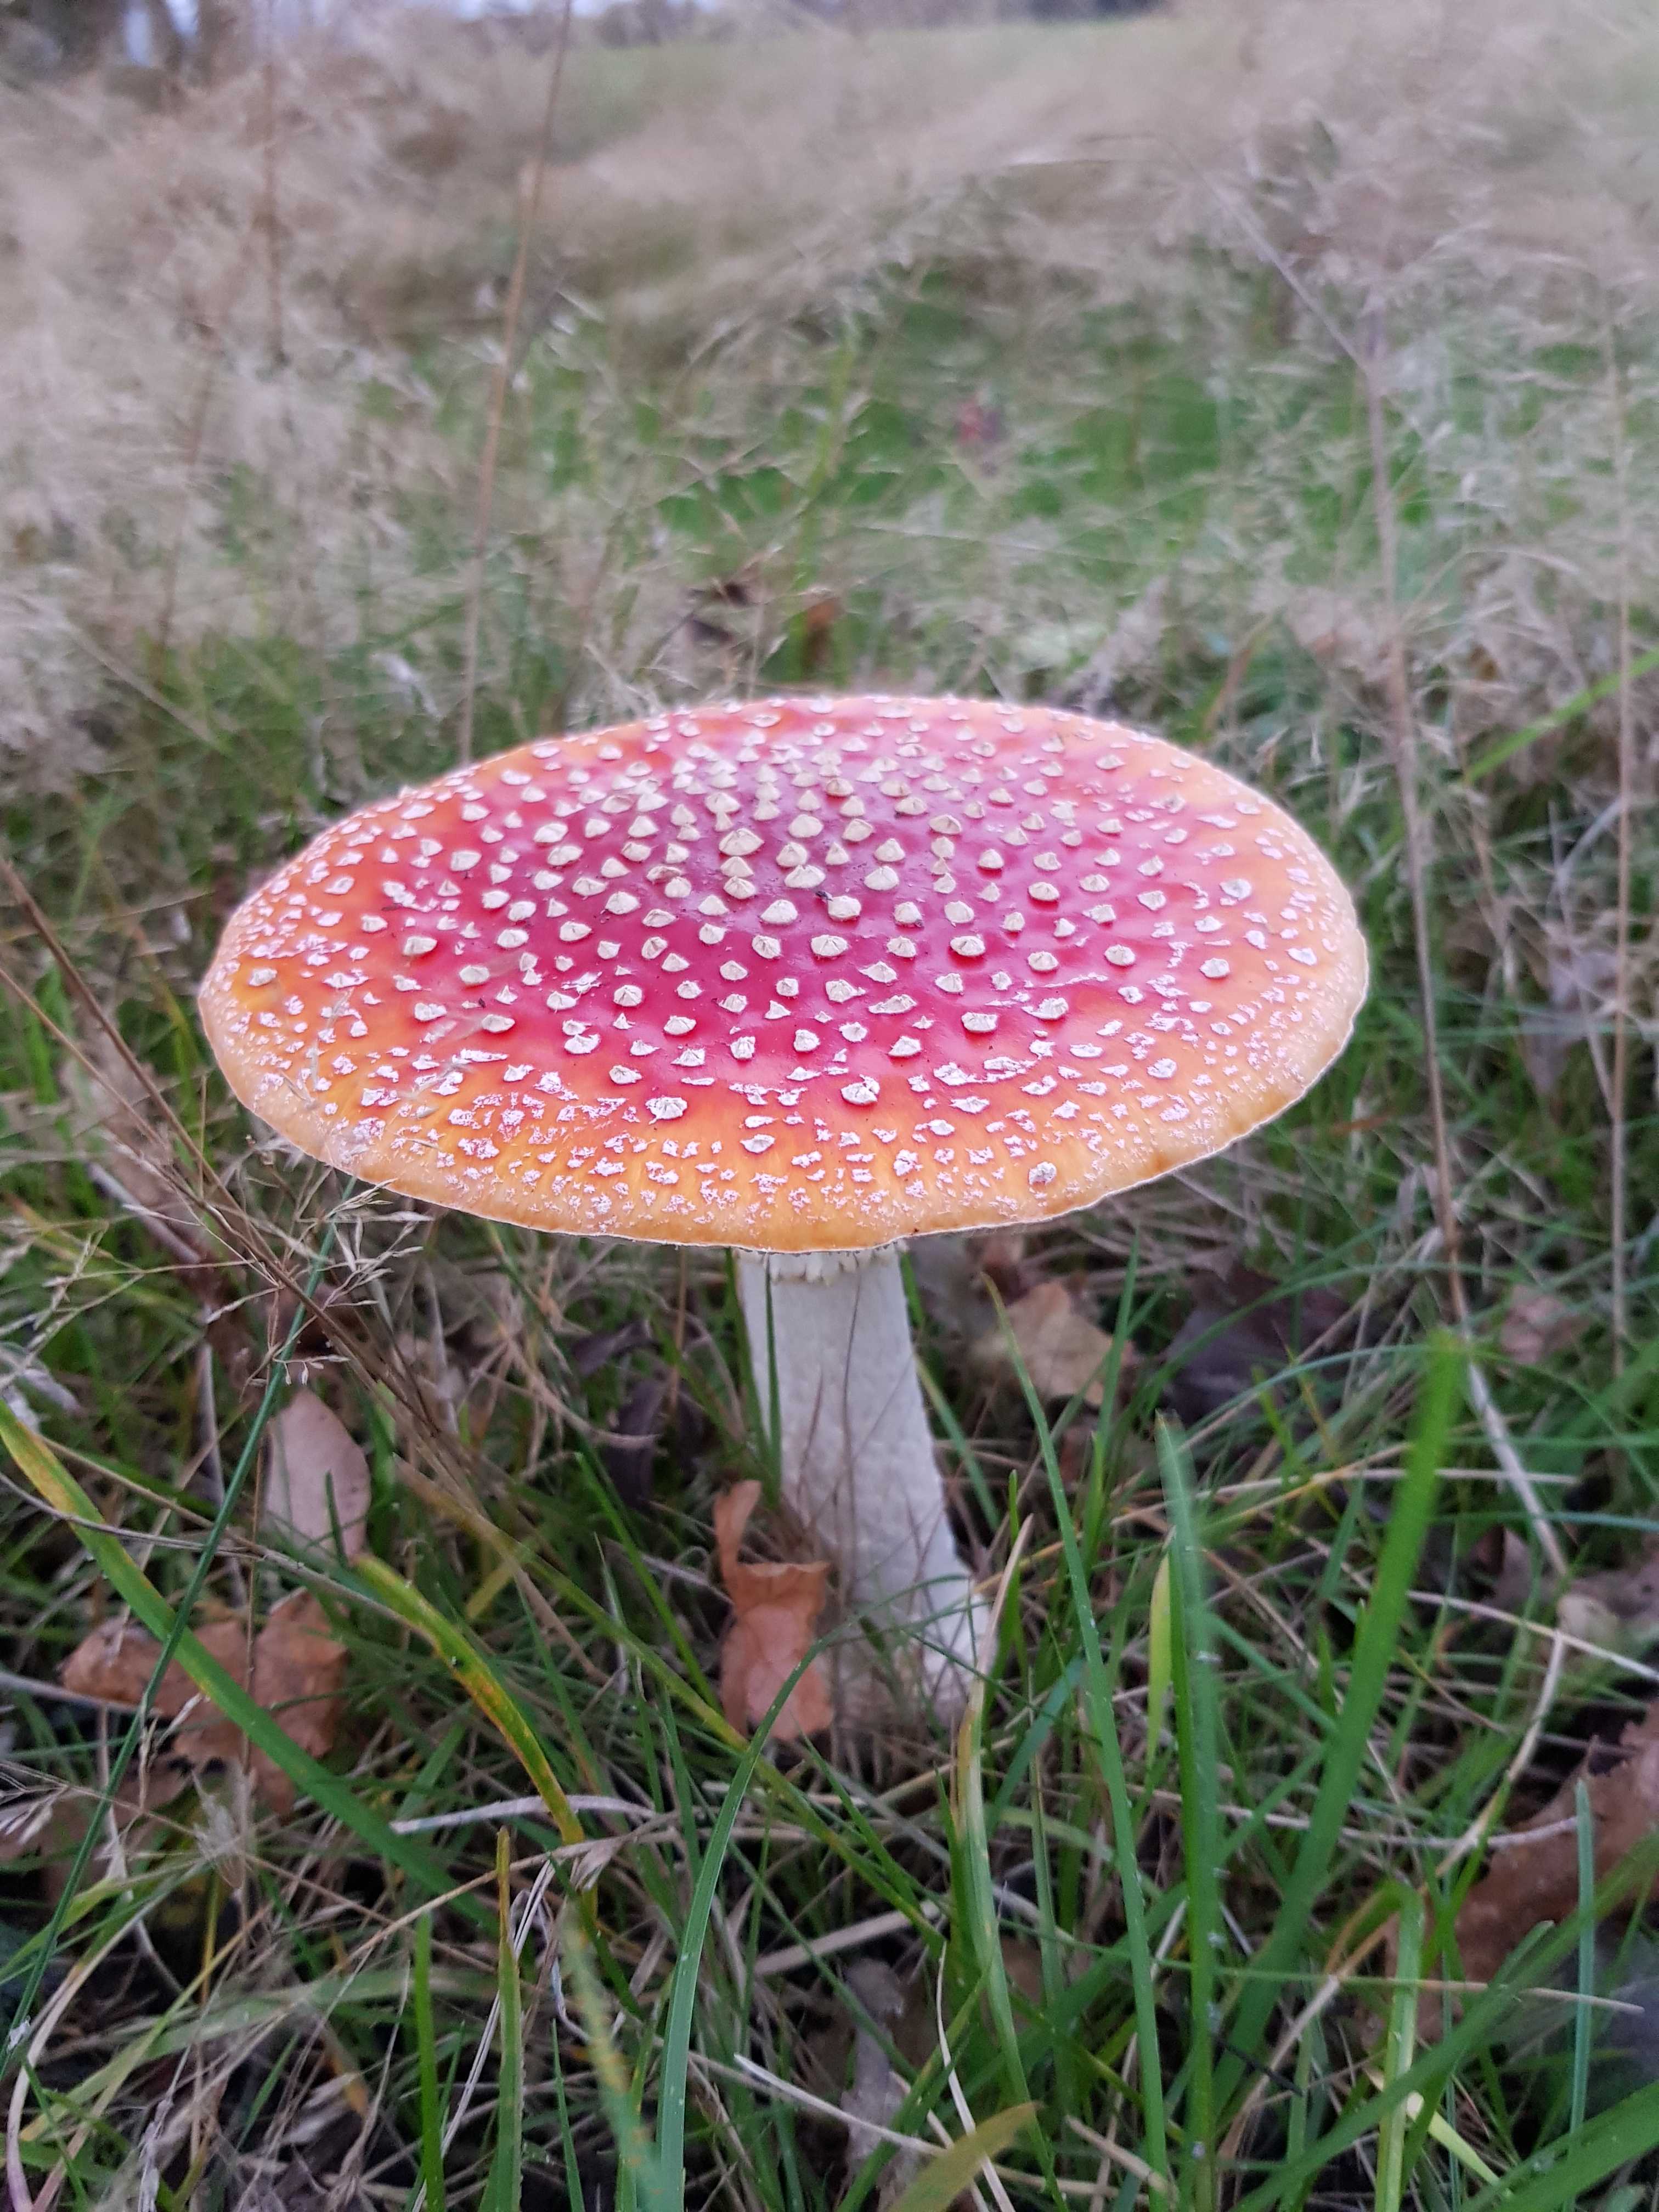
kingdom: Fungi
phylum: Basidiomycota
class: Agaricomycetes
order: Agaricales
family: Amanitaceae
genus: Amanita
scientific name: Amanita muscaria
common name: rød fluesvamp
